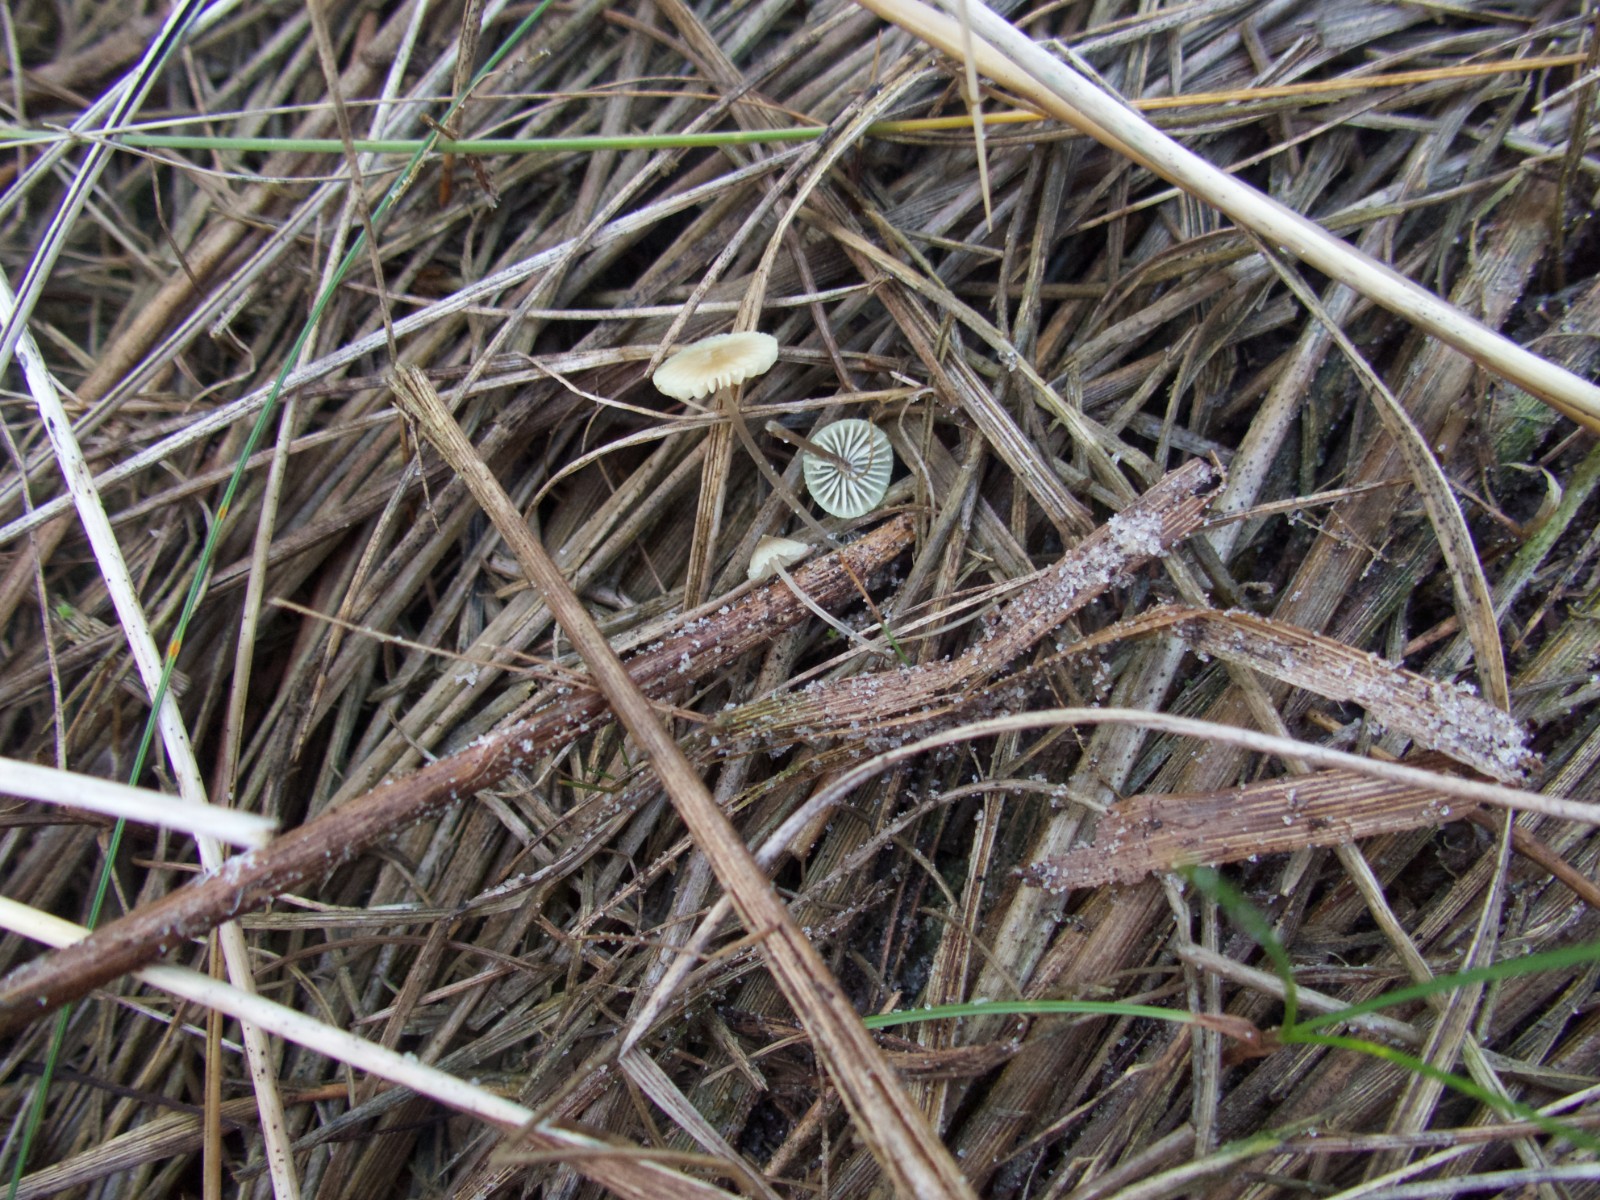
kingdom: Fungi
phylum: Basidiomycota
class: Agaricomycetes
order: Agaricales
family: Mycenaceae
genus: Mycena
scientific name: Mycena chlorantha
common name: klit-huesvamp
